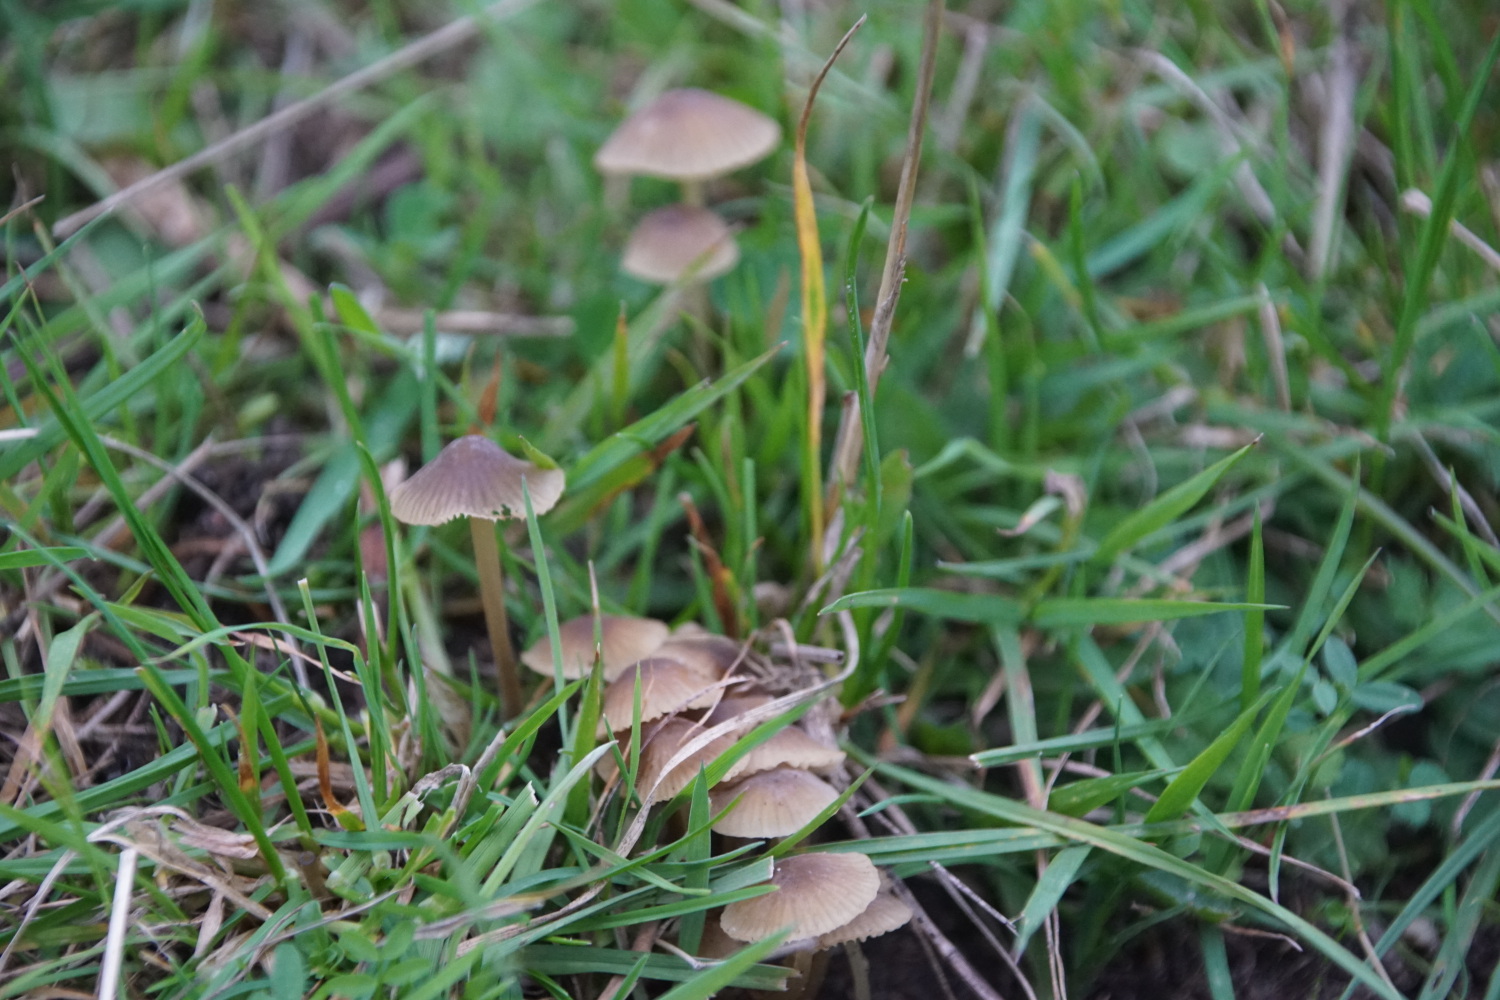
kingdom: Fungi
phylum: Basidiomycota
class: Agaricomycetes
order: Agaricales
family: Mycenaceae
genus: Mycena
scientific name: Mycena olivaceomarginata
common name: brunægget huesvamp
